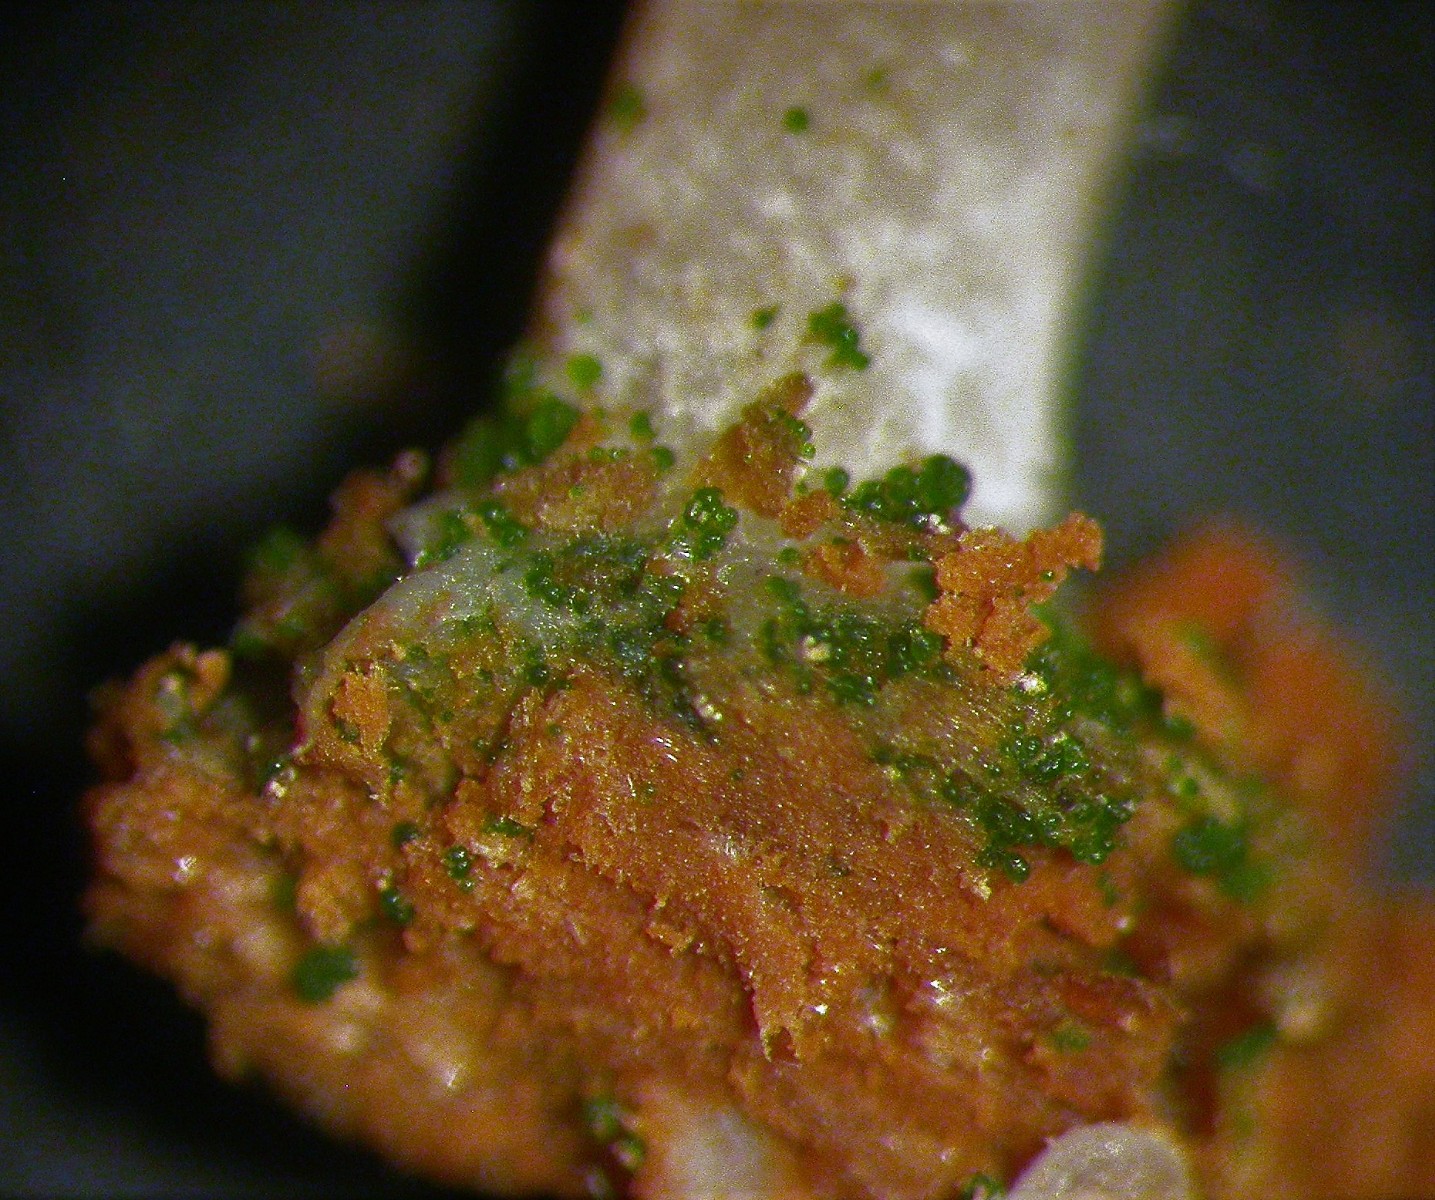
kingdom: Fungi
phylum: Basidiomycota
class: Agaricomycetes
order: Agaricales
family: Hygrophoraceae
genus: Lichenomphalia
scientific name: Lichenomphalia umbellifera
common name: tørve-lavhat
